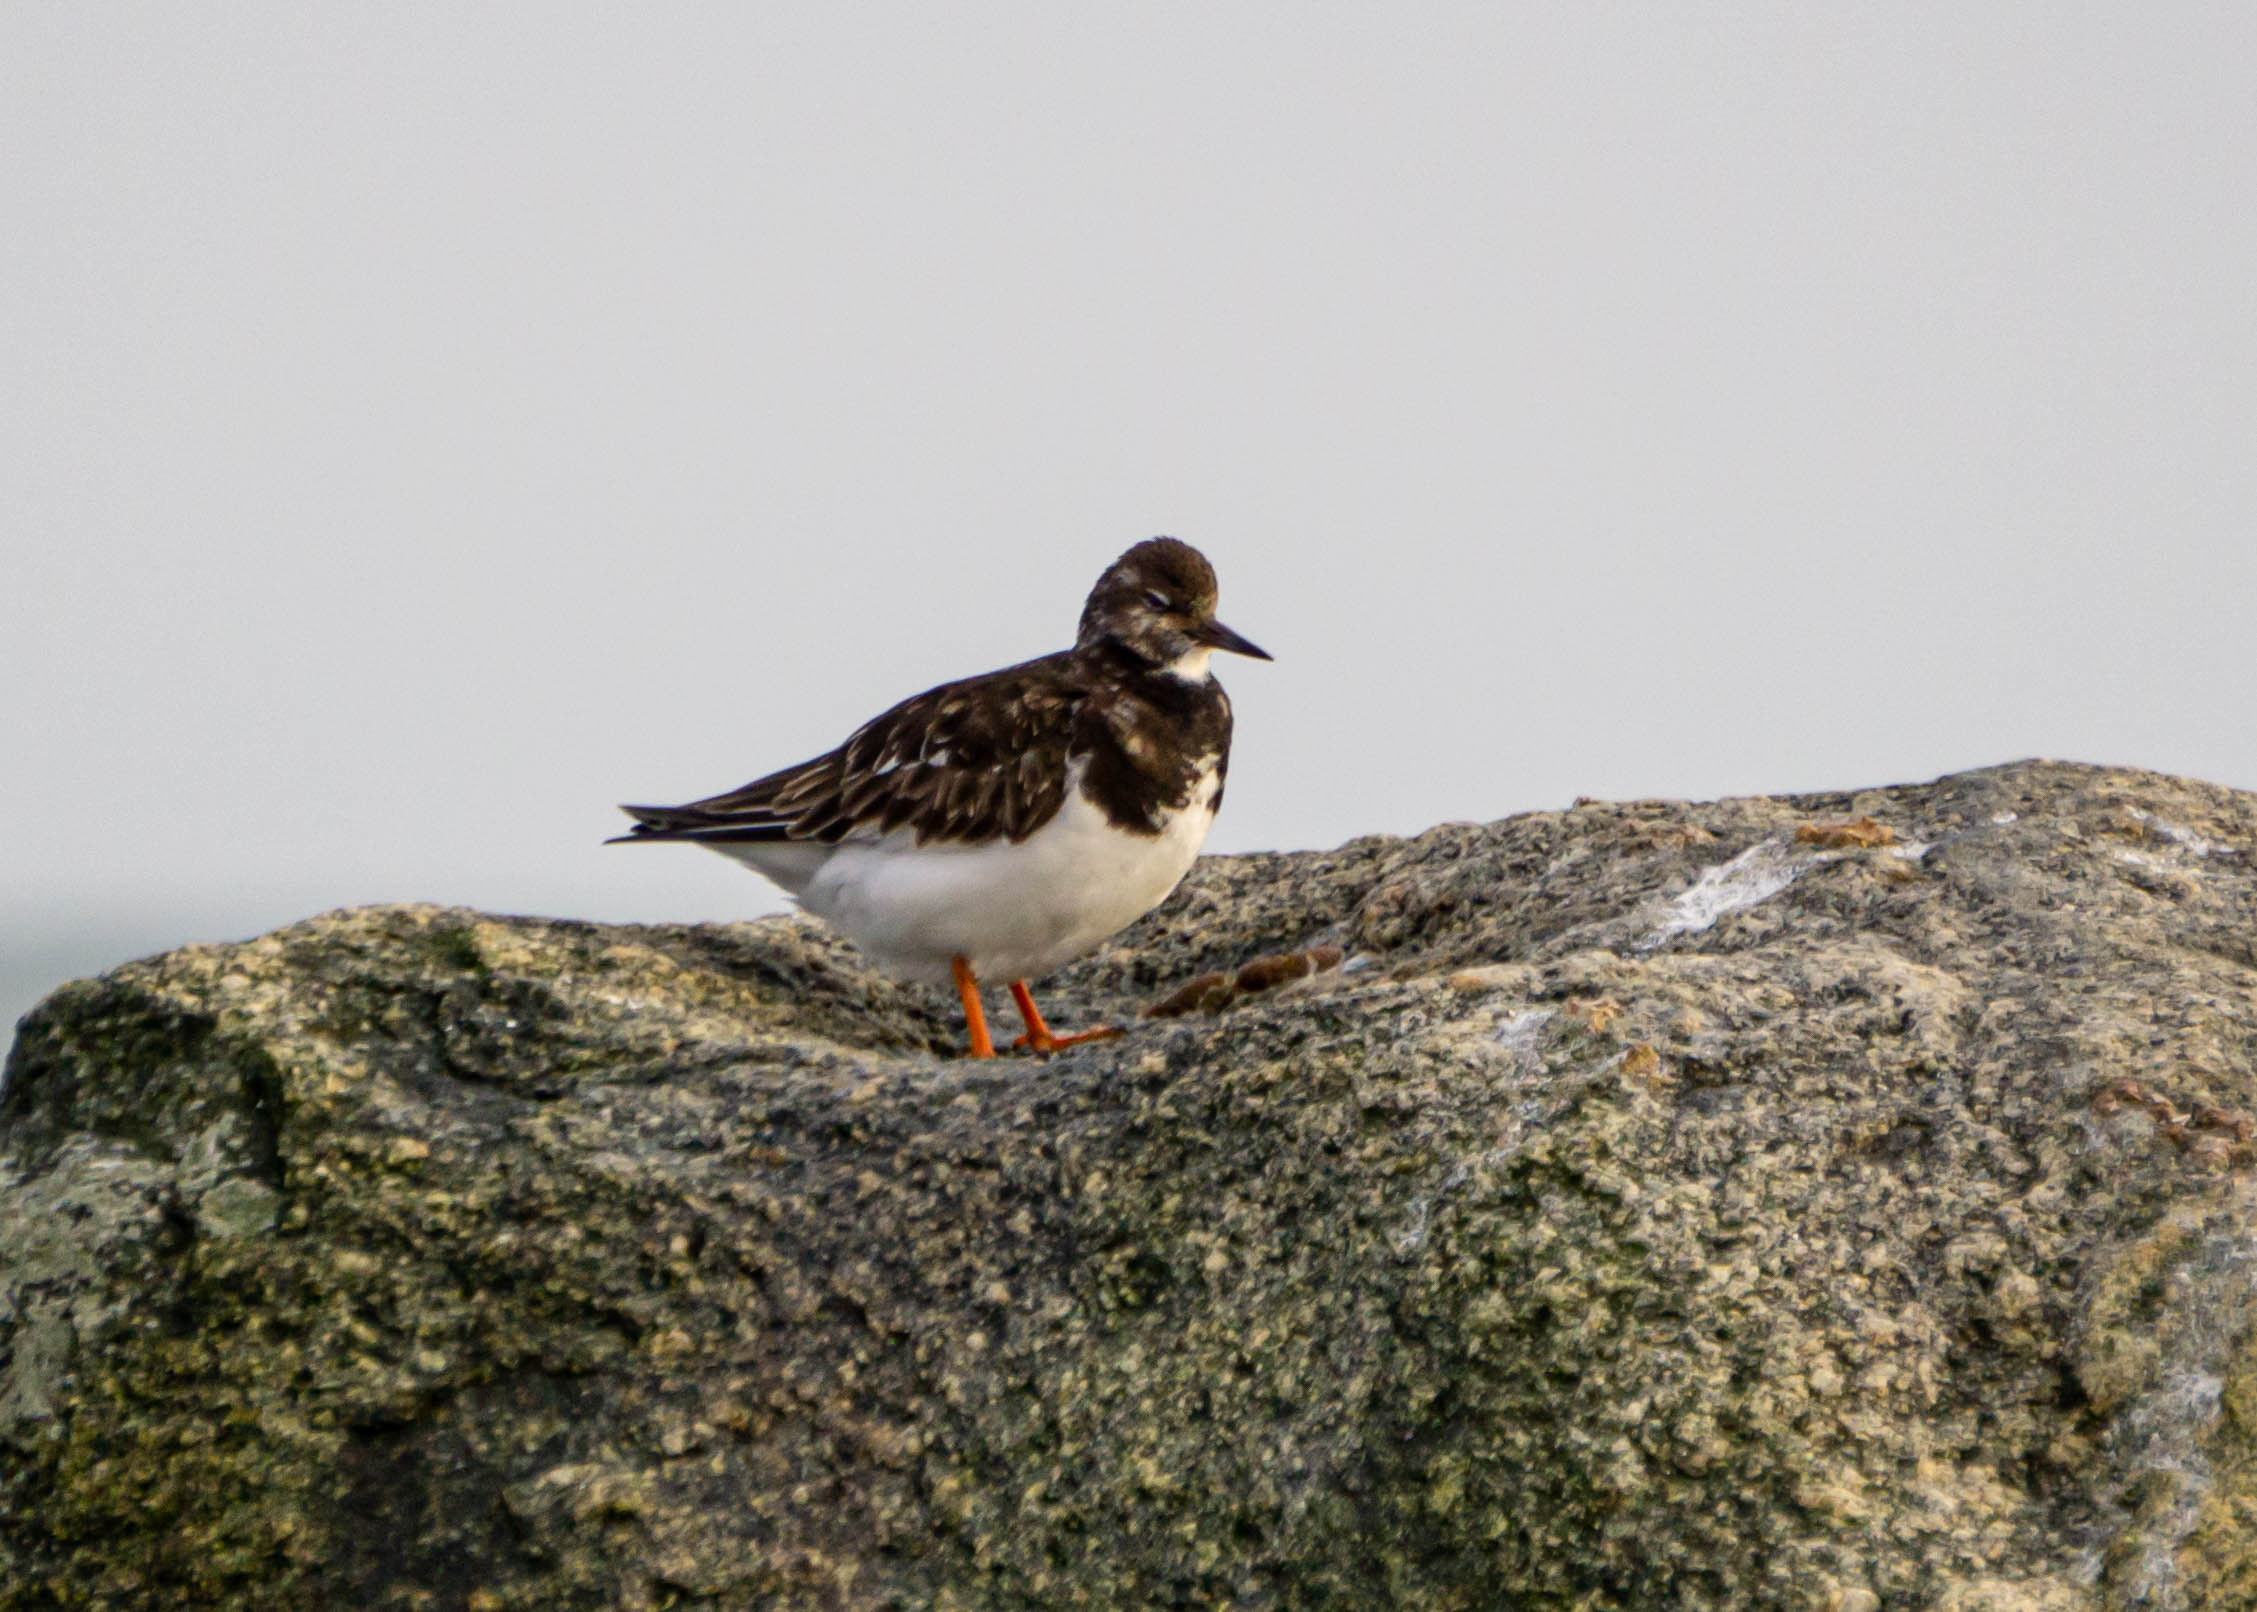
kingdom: Animalia
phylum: Chordata
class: Aves
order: Charadriiformes
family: Scolopacidae
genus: Arenaria
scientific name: Arenaria interpres
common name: Stenvender
